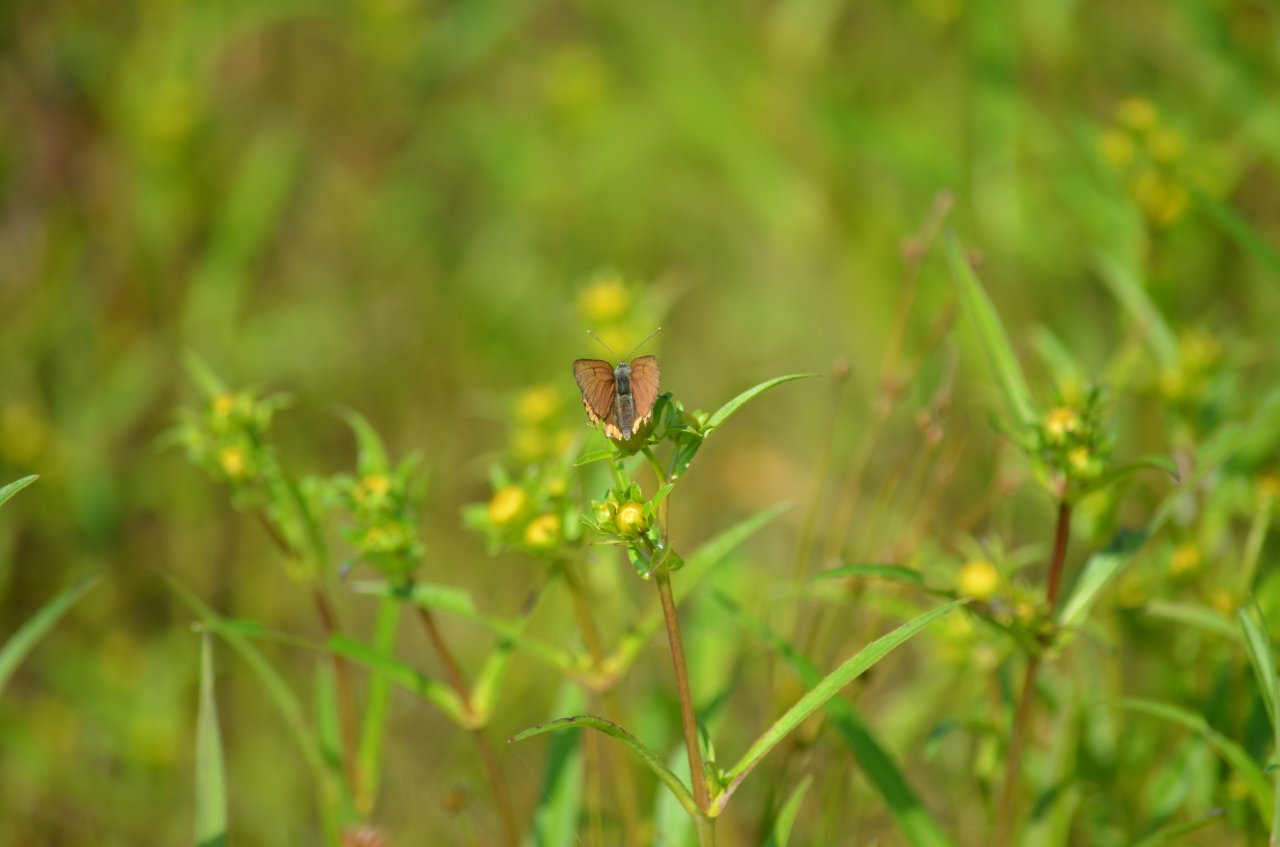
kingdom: Animalia
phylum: Arthropoda
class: Insecta
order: Lepidoptera
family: Sesiidae
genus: Sesia
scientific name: Sesia Lycaena hyllus
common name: Bronze Copper
